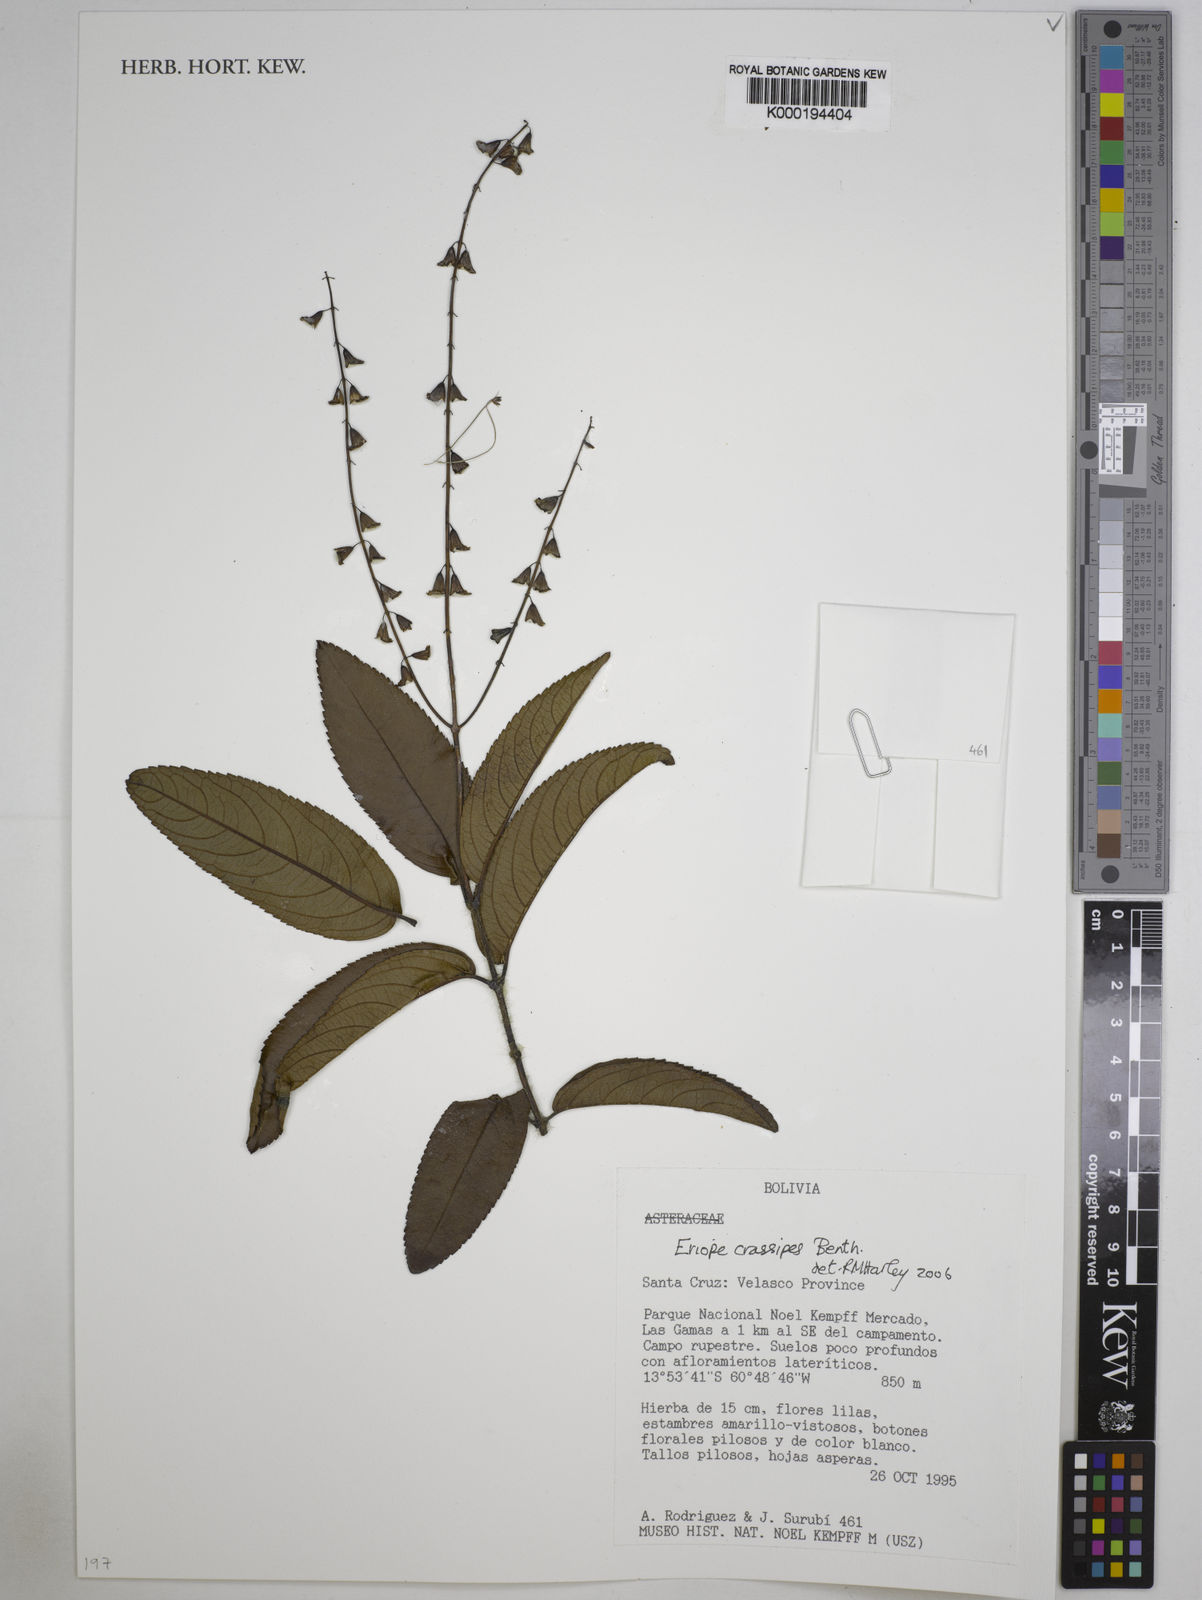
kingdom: Plantae
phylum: Tracheophyta
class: Magnoliopsida
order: Lamiales
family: Lamiaceae
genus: Eriope
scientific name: Eriope crassipes
